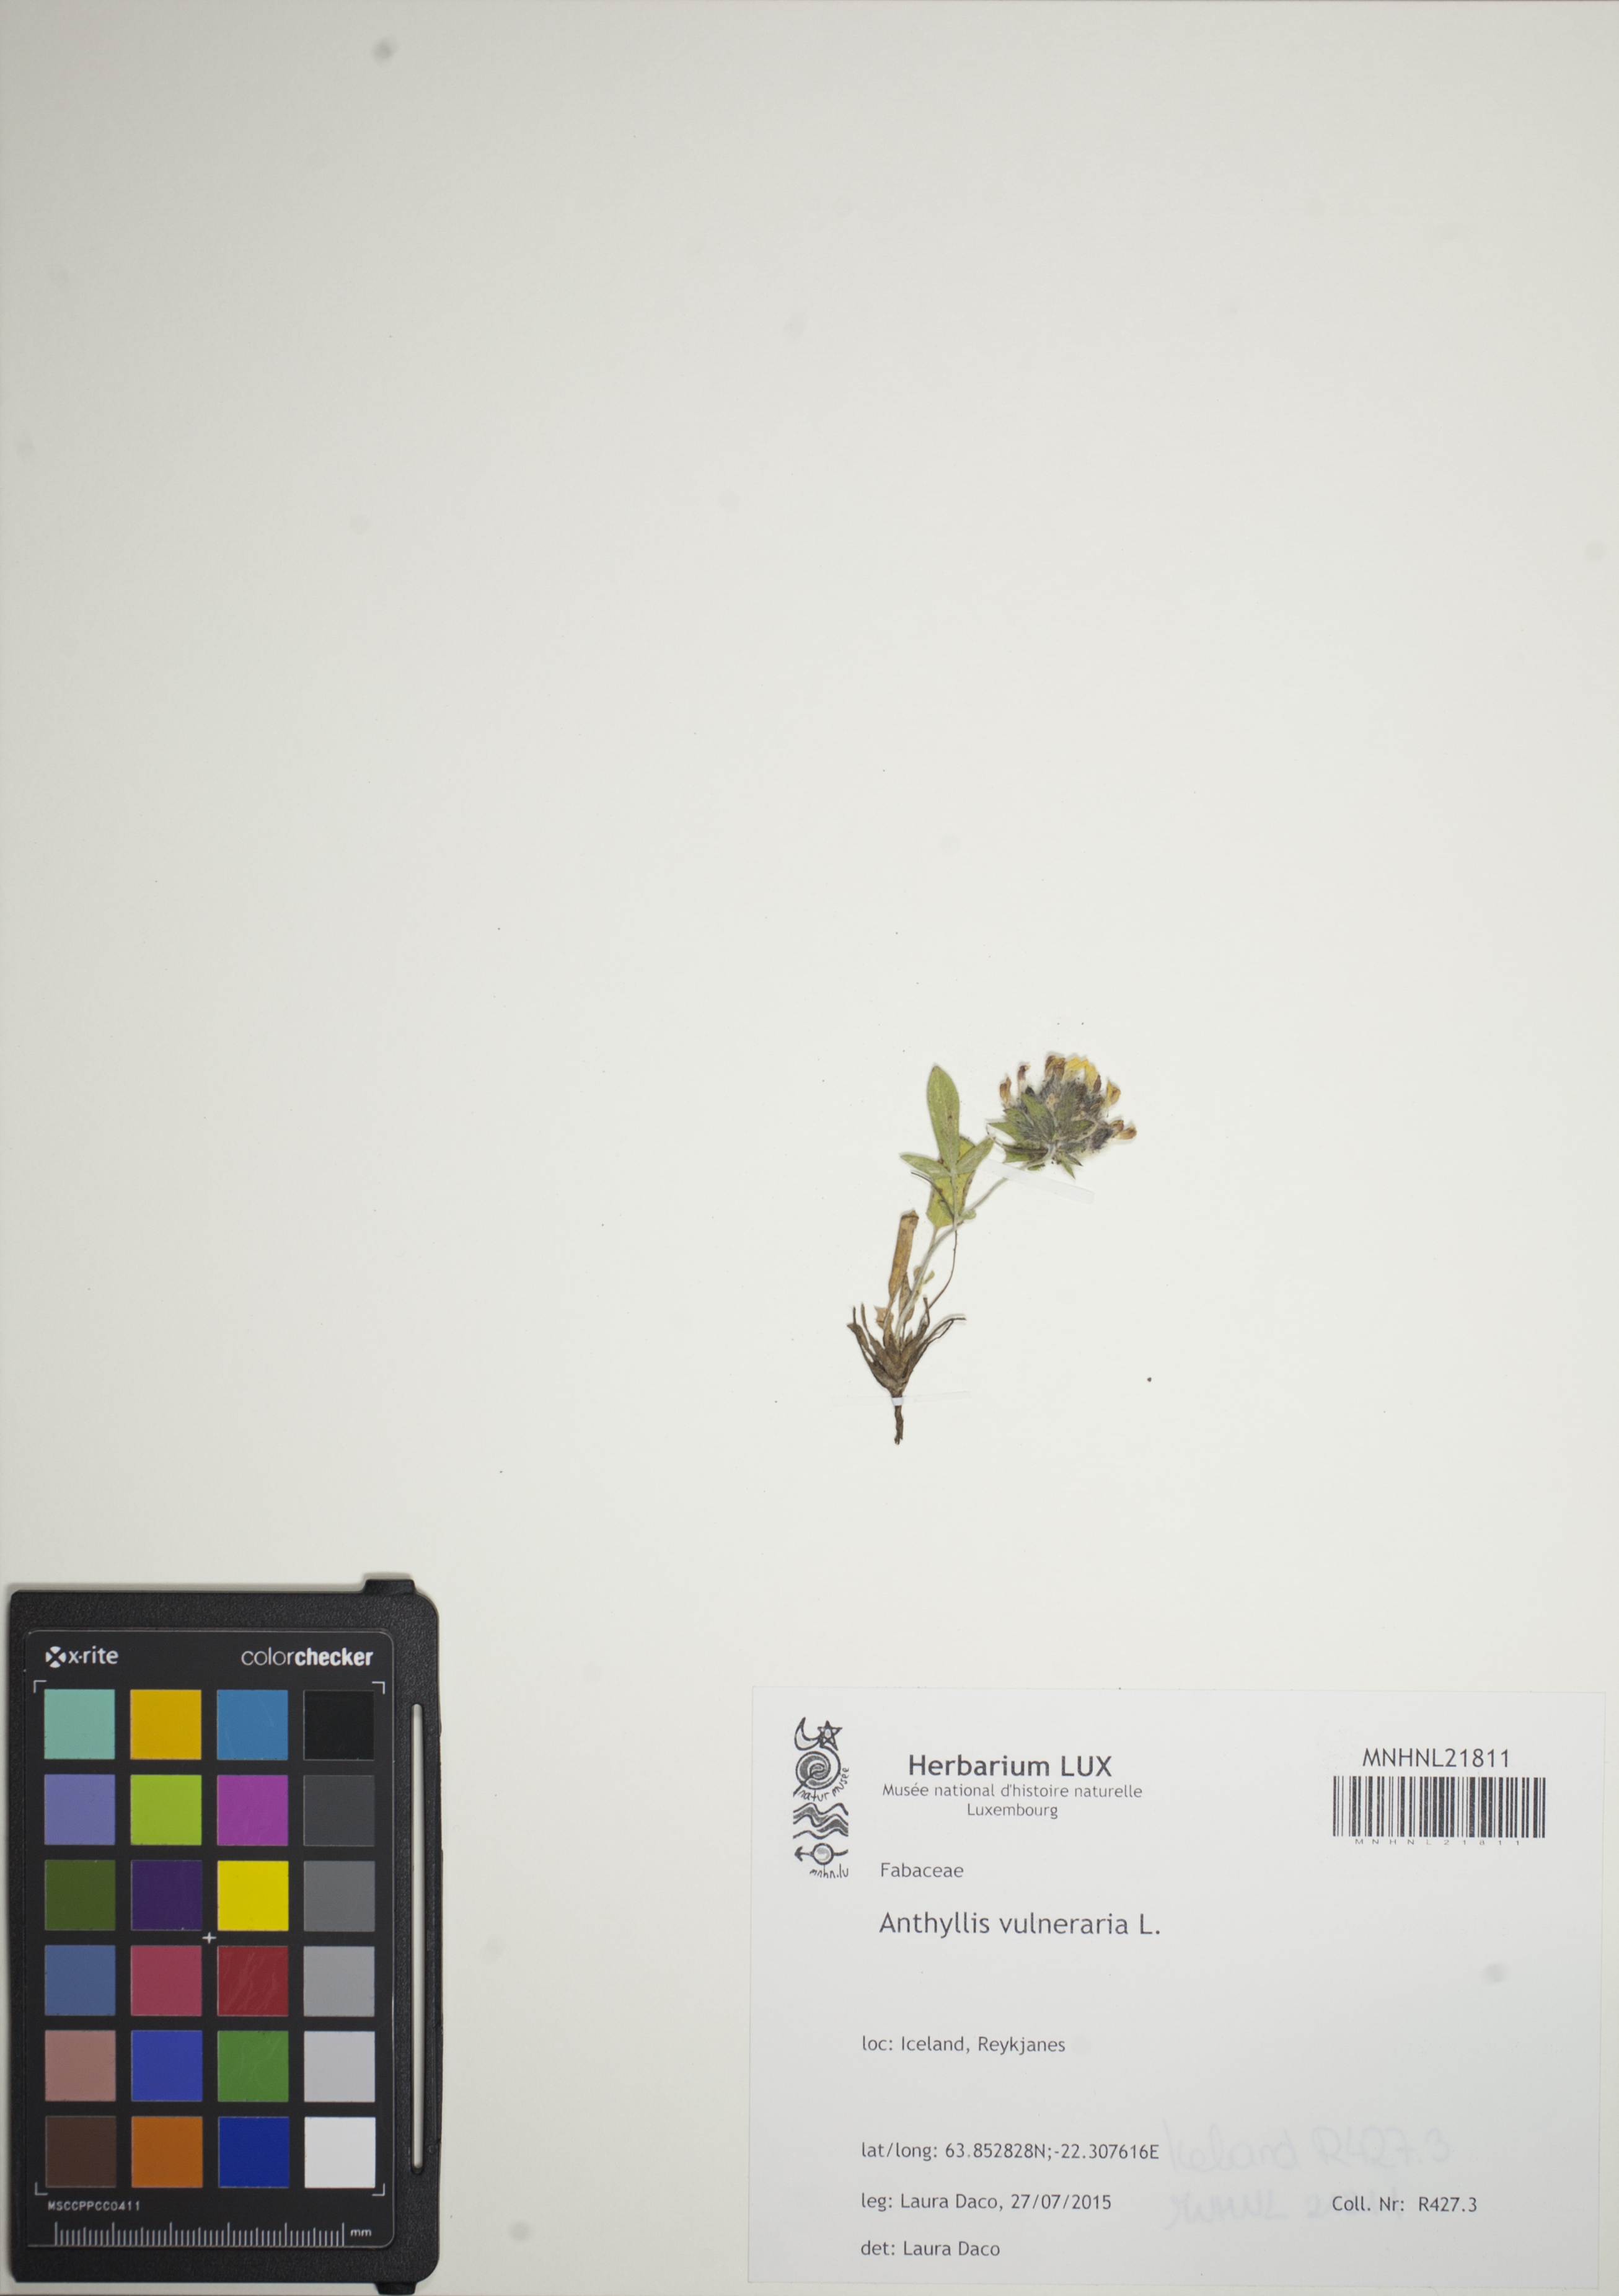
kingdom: Plantae
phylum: Tracheophyta
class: Magnoliopsida
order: Fabales
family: Fabaceae
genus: Anthyllis
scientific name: Anthyllis vulneraria
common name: Kidney vetch
